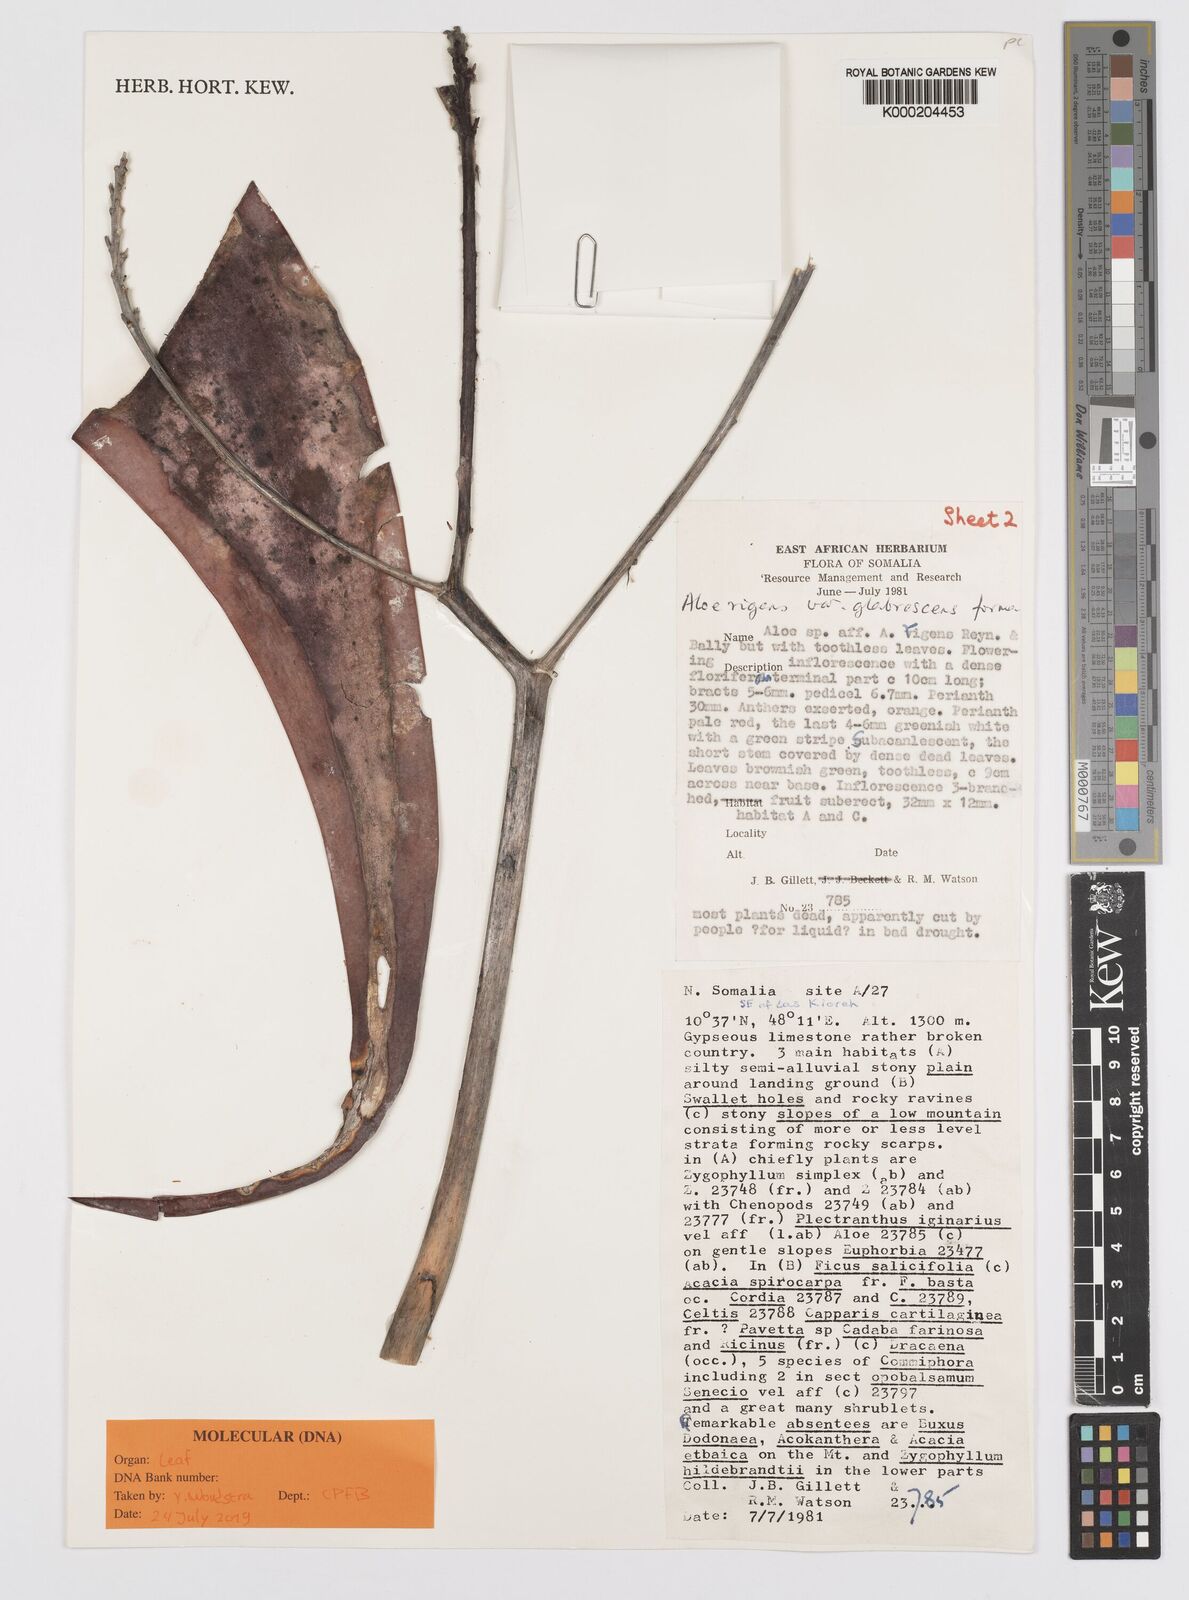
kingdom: Plantae
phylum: Tracheophyta
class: Liliopsida
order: Asparagales
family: Asphodelaceae
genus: Aloe
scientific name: Aloe glabrescens
